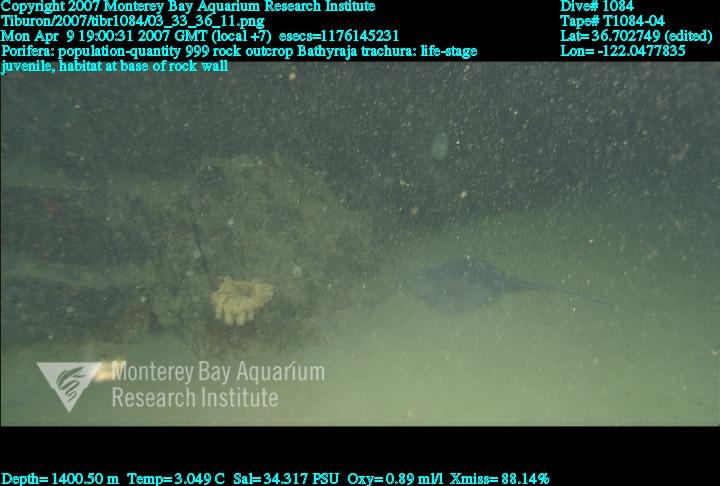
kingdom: Animalia
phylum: Porifera
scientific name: Porifera
